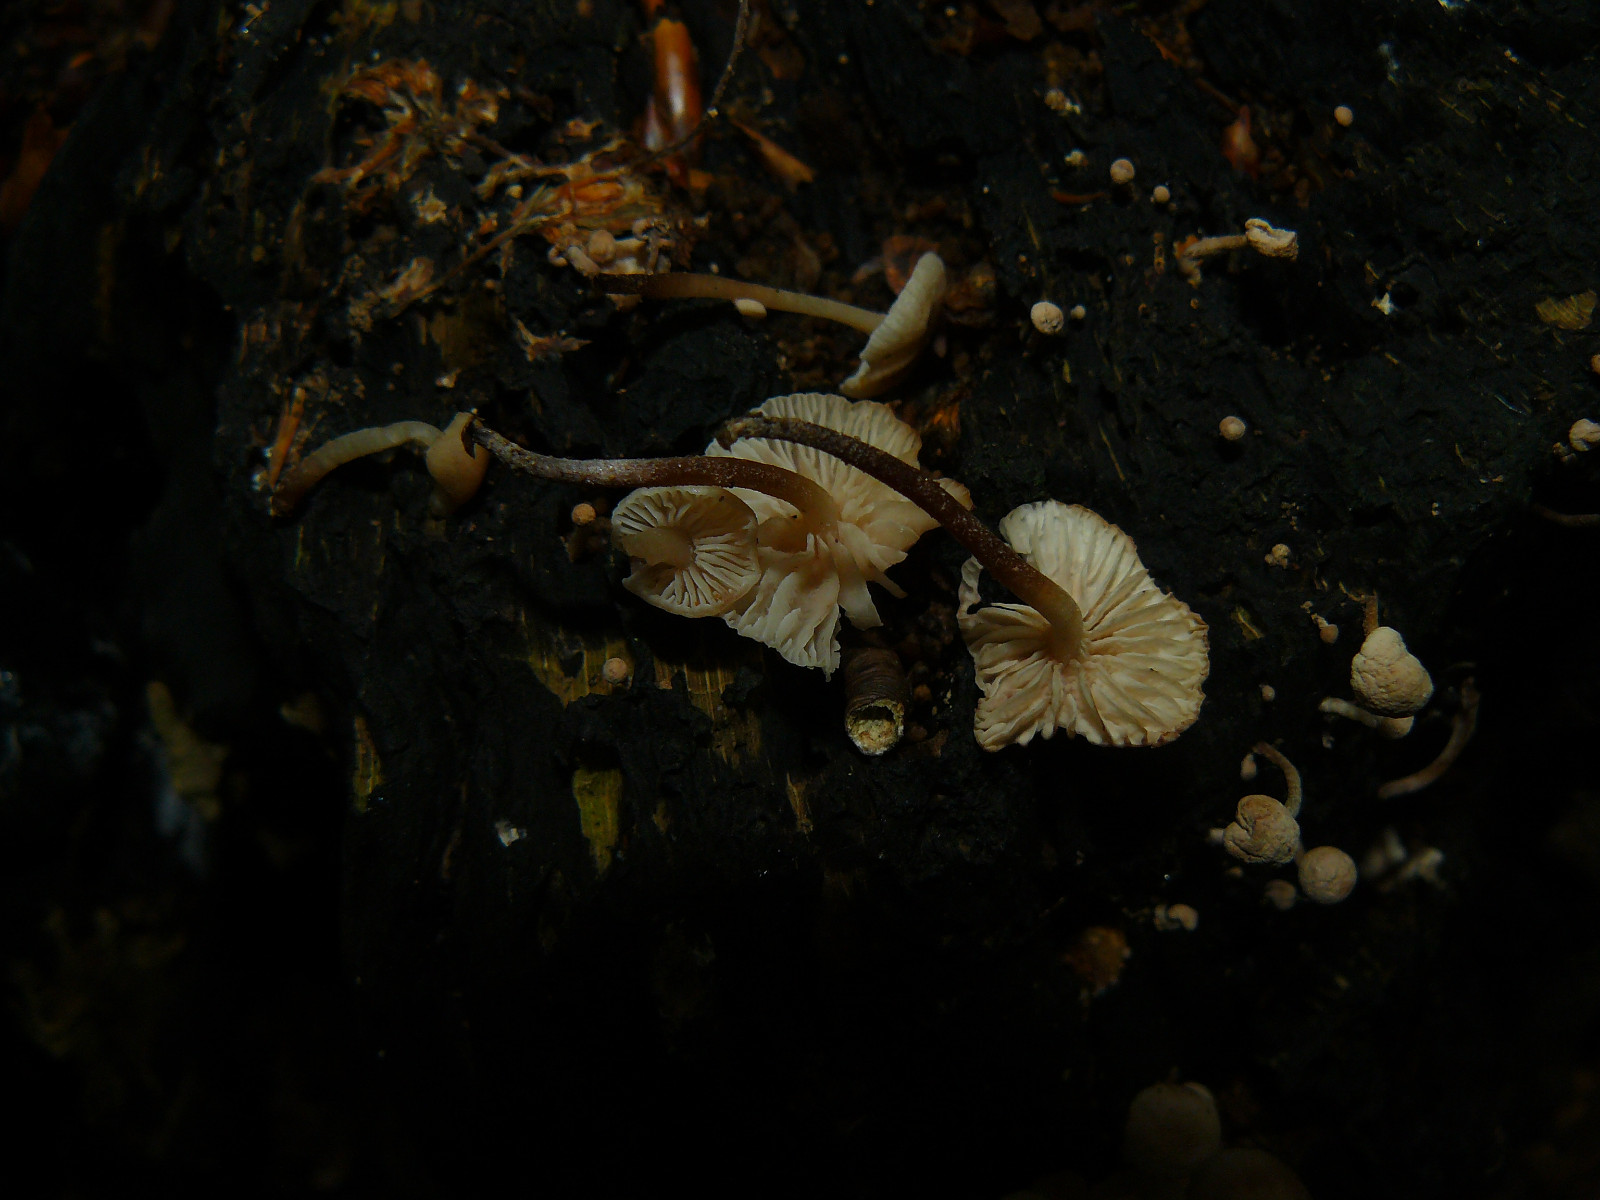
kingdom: Fungi
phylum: Basidiomycota
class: Agaricomycetes
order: Agaricales
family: Omphalotaceae
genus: Collybiopsis
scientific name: Collybiopsis ramealis
